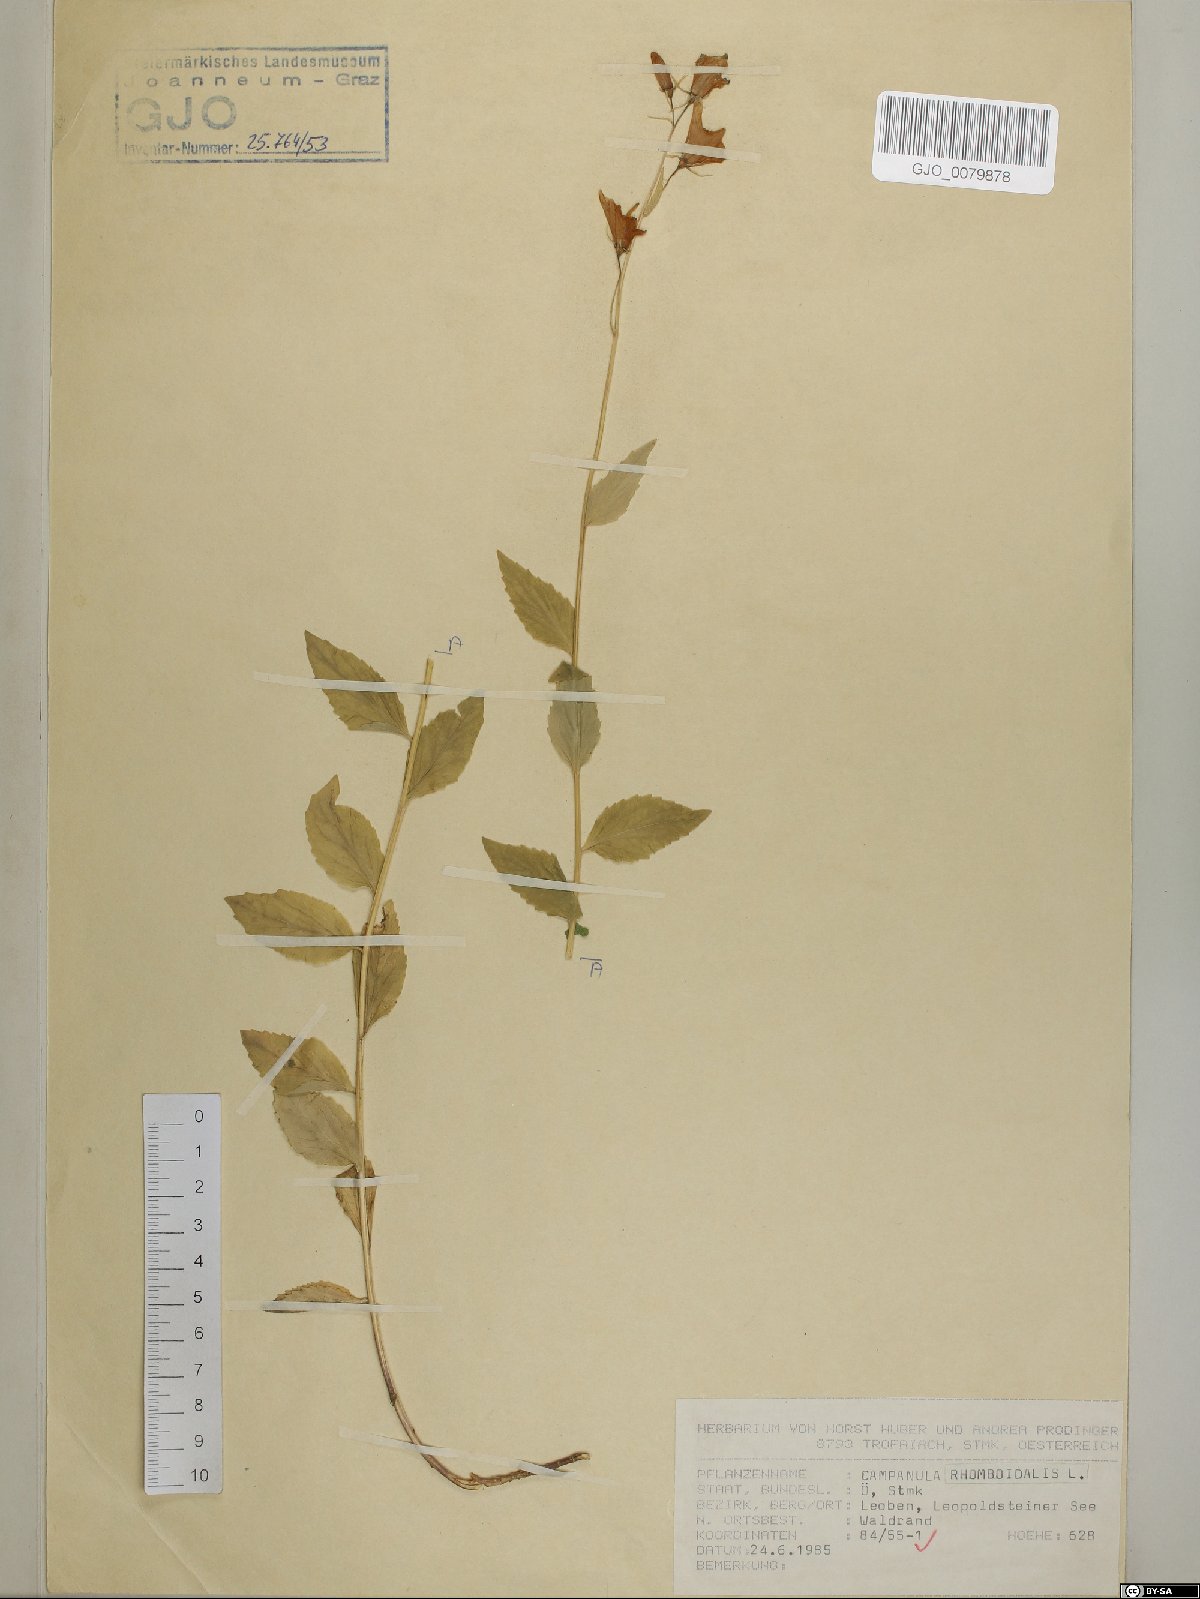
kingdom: Plantae
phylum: Tracheophyta
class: Magnoliopsida
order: Asterales
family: Campanulaceae
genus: Campanula
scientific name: Campanula rhomboidalis
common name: Broad-leaved harebell
